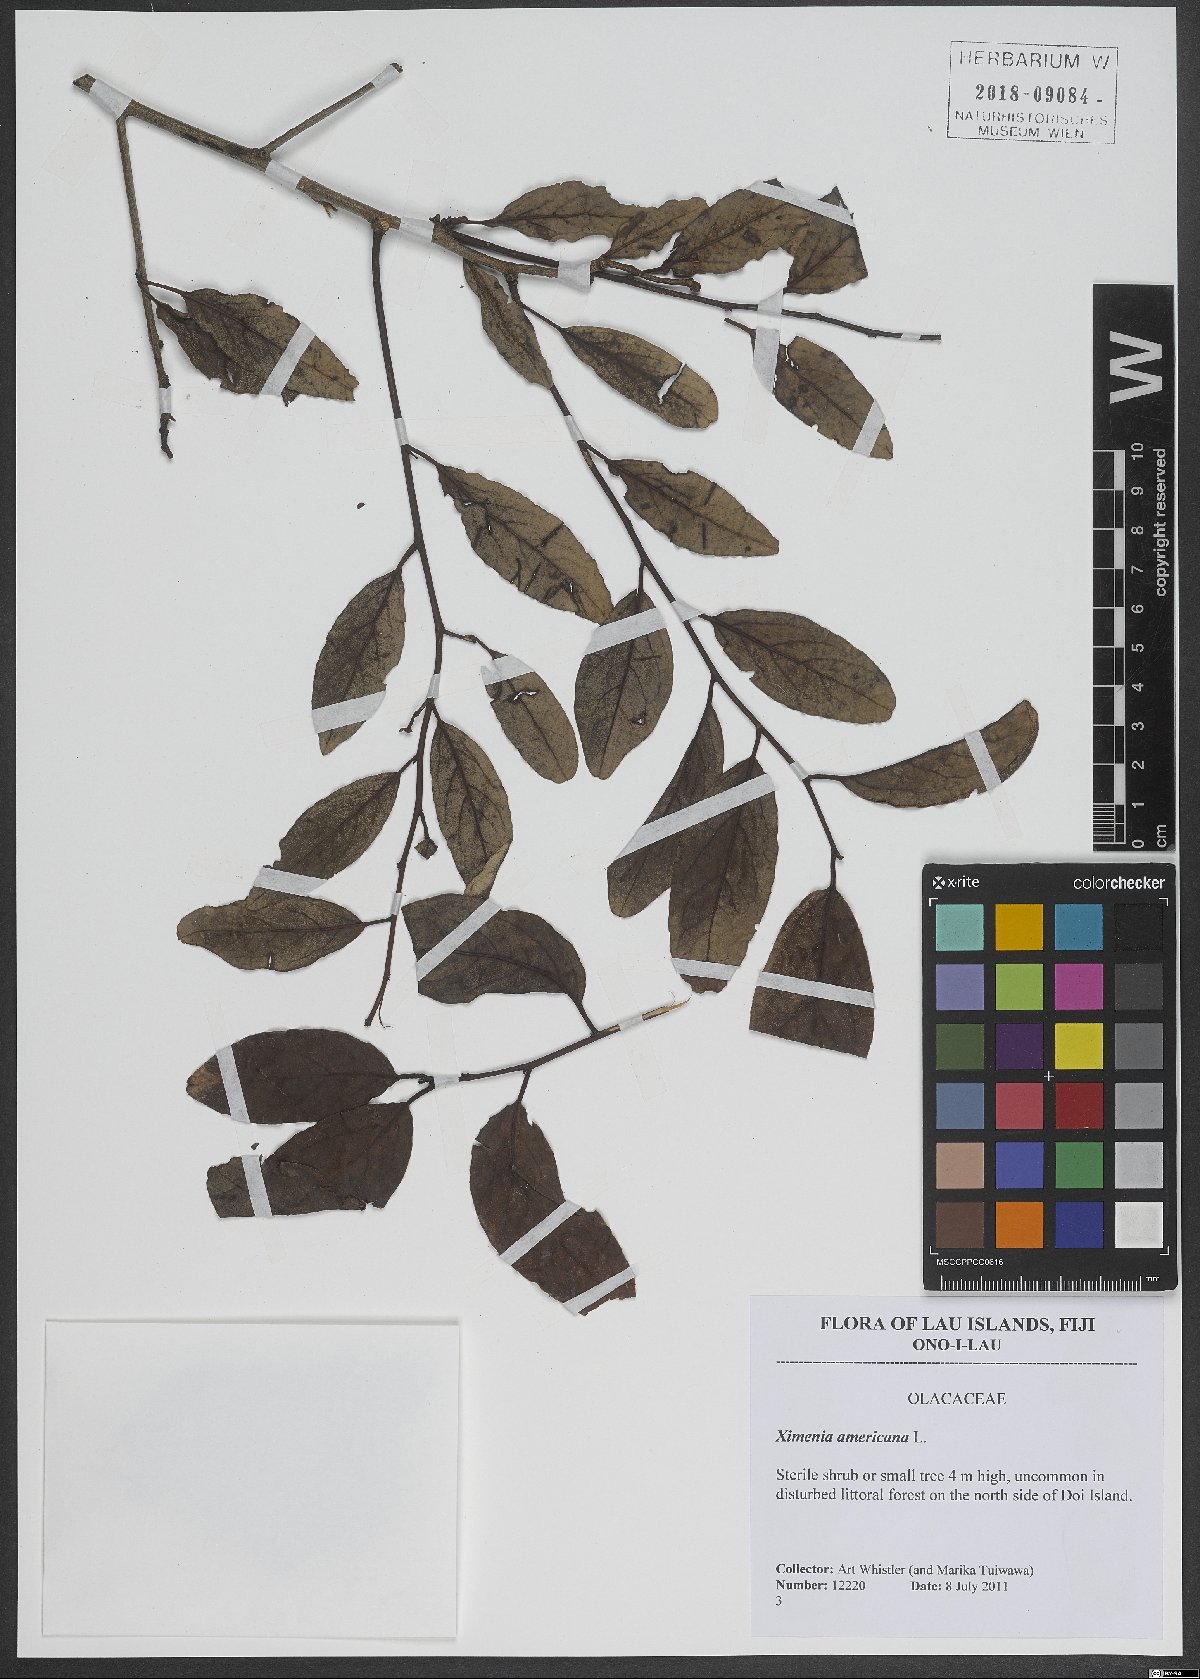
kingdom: Plantae
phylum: Tracheophyta
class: Magnoliopsida
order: Santalales
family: Ximeniaceae
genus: Ximenia
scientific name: Ximenia americana
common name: Tallowwood
